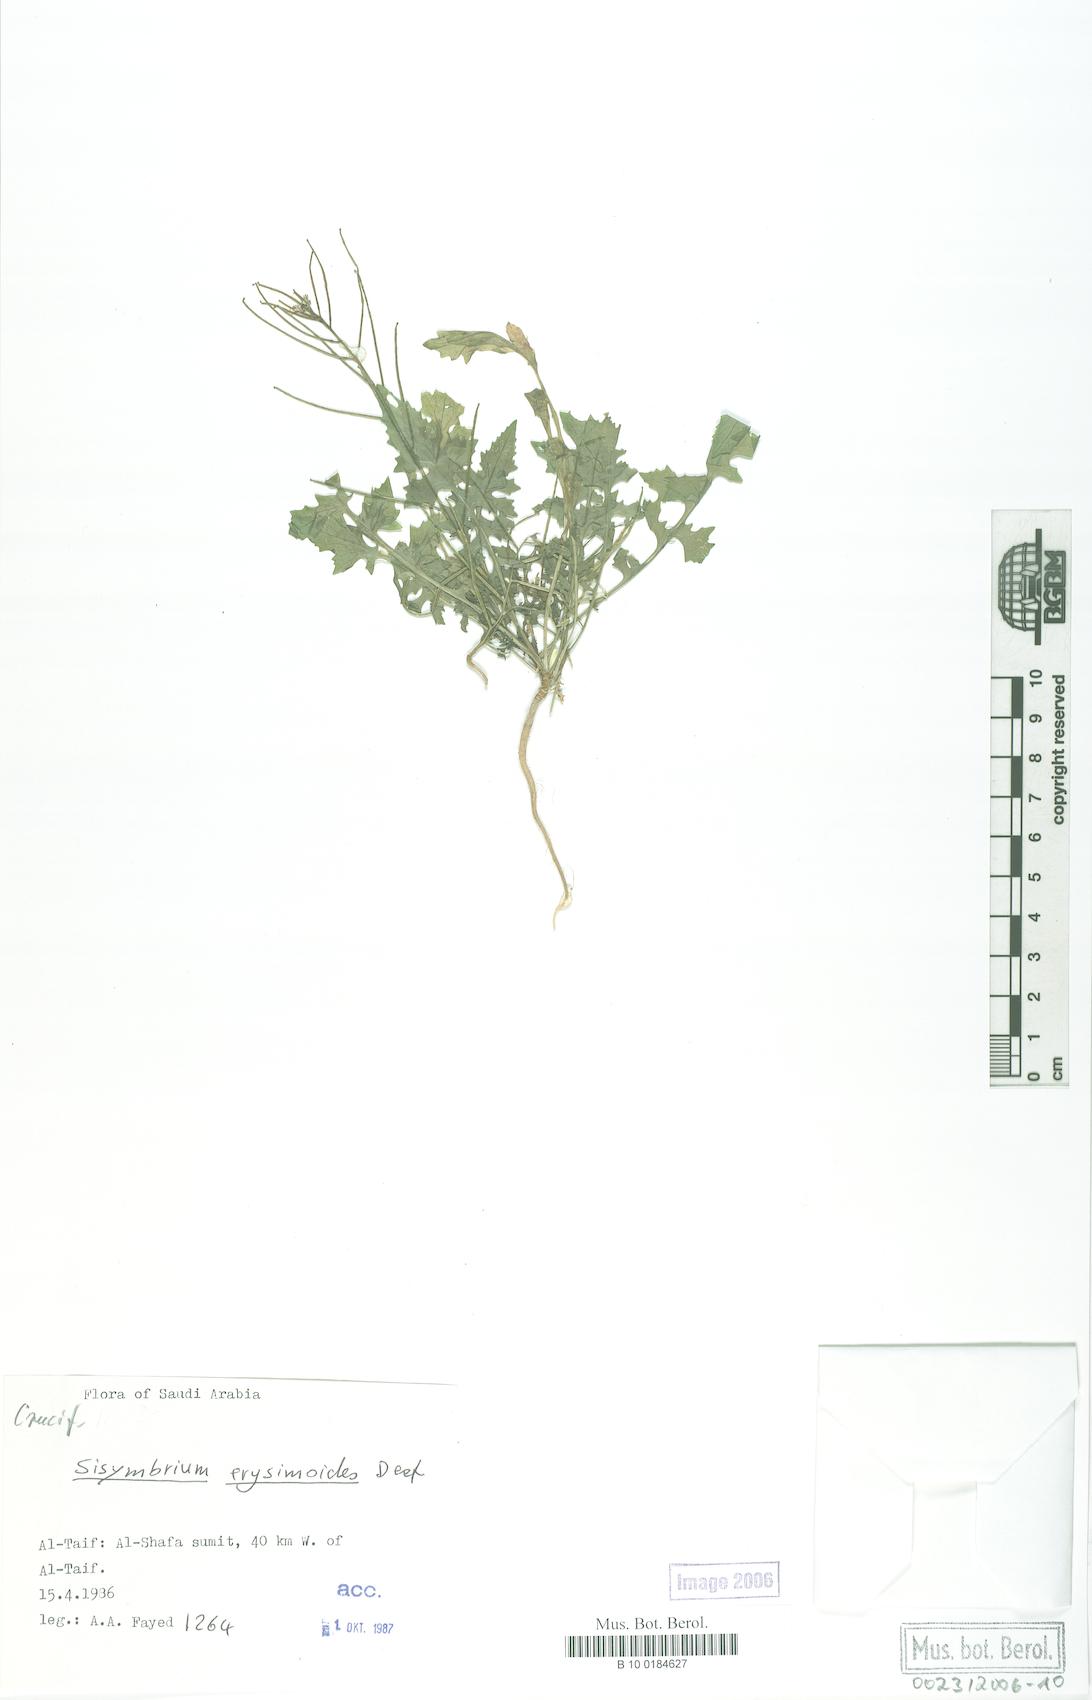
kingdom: Plantae
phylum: Tracheophyta
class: Magnoliopsida
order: Brassicales
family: Brassicaceae
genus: Sisymbrium
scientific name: Sisymbrium erysimoides
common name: French rocket
